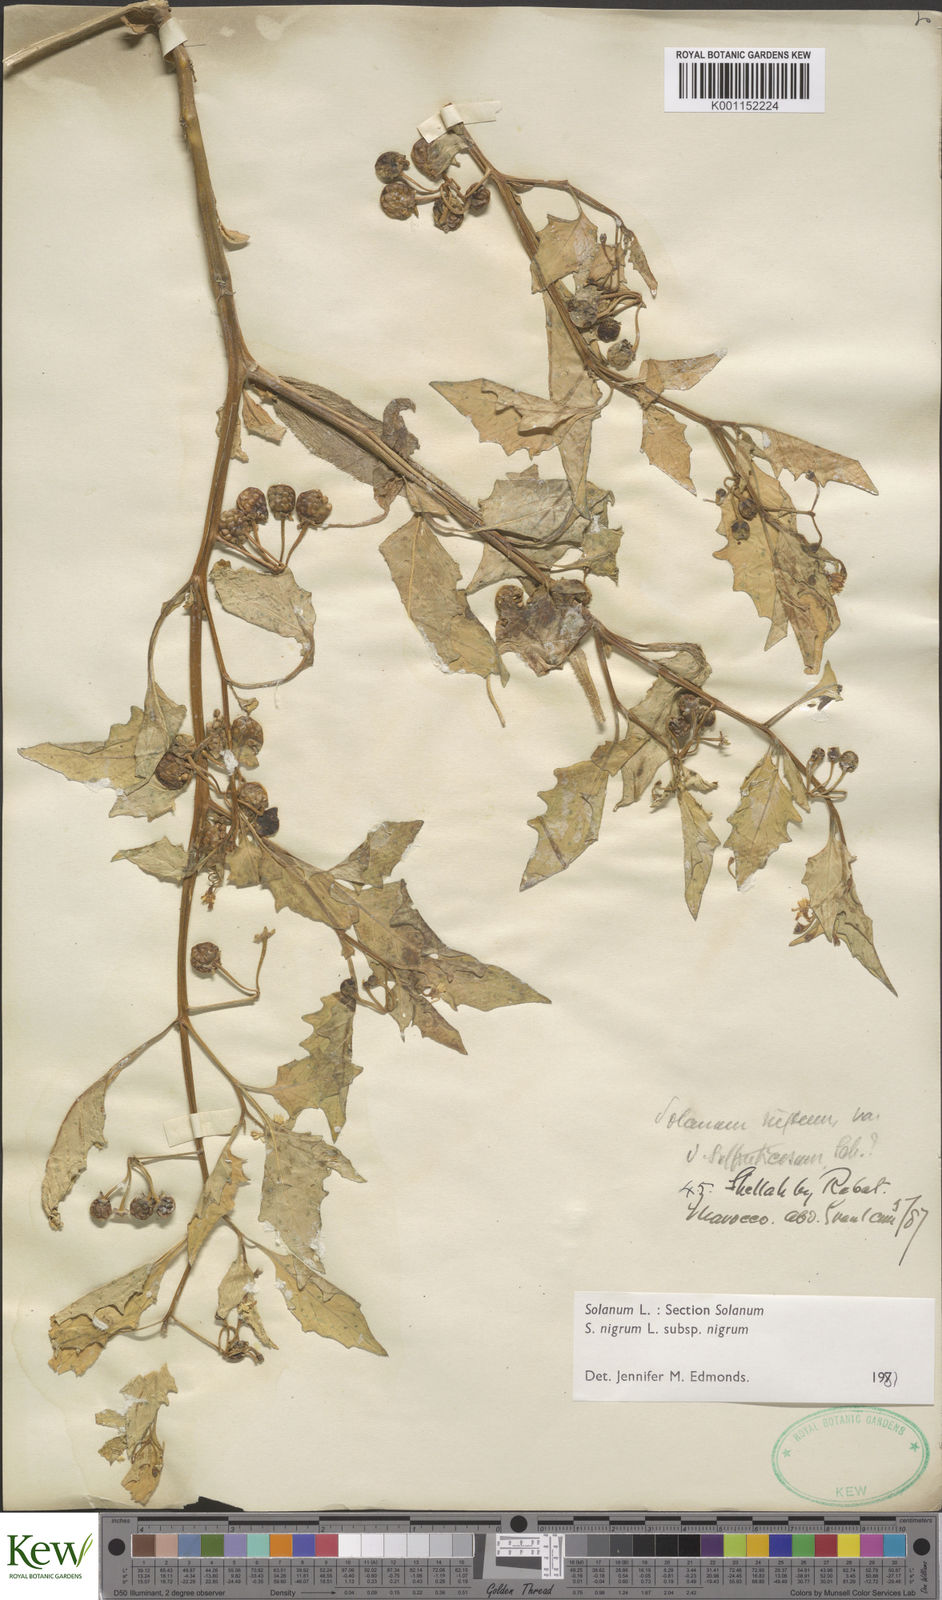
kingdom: Plantae
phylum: Tracheophyta
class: Magnoliopsida
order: Solanales
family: Solanaceae
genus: Solanum
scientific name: Solanum nigrum
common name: Black nightshade
